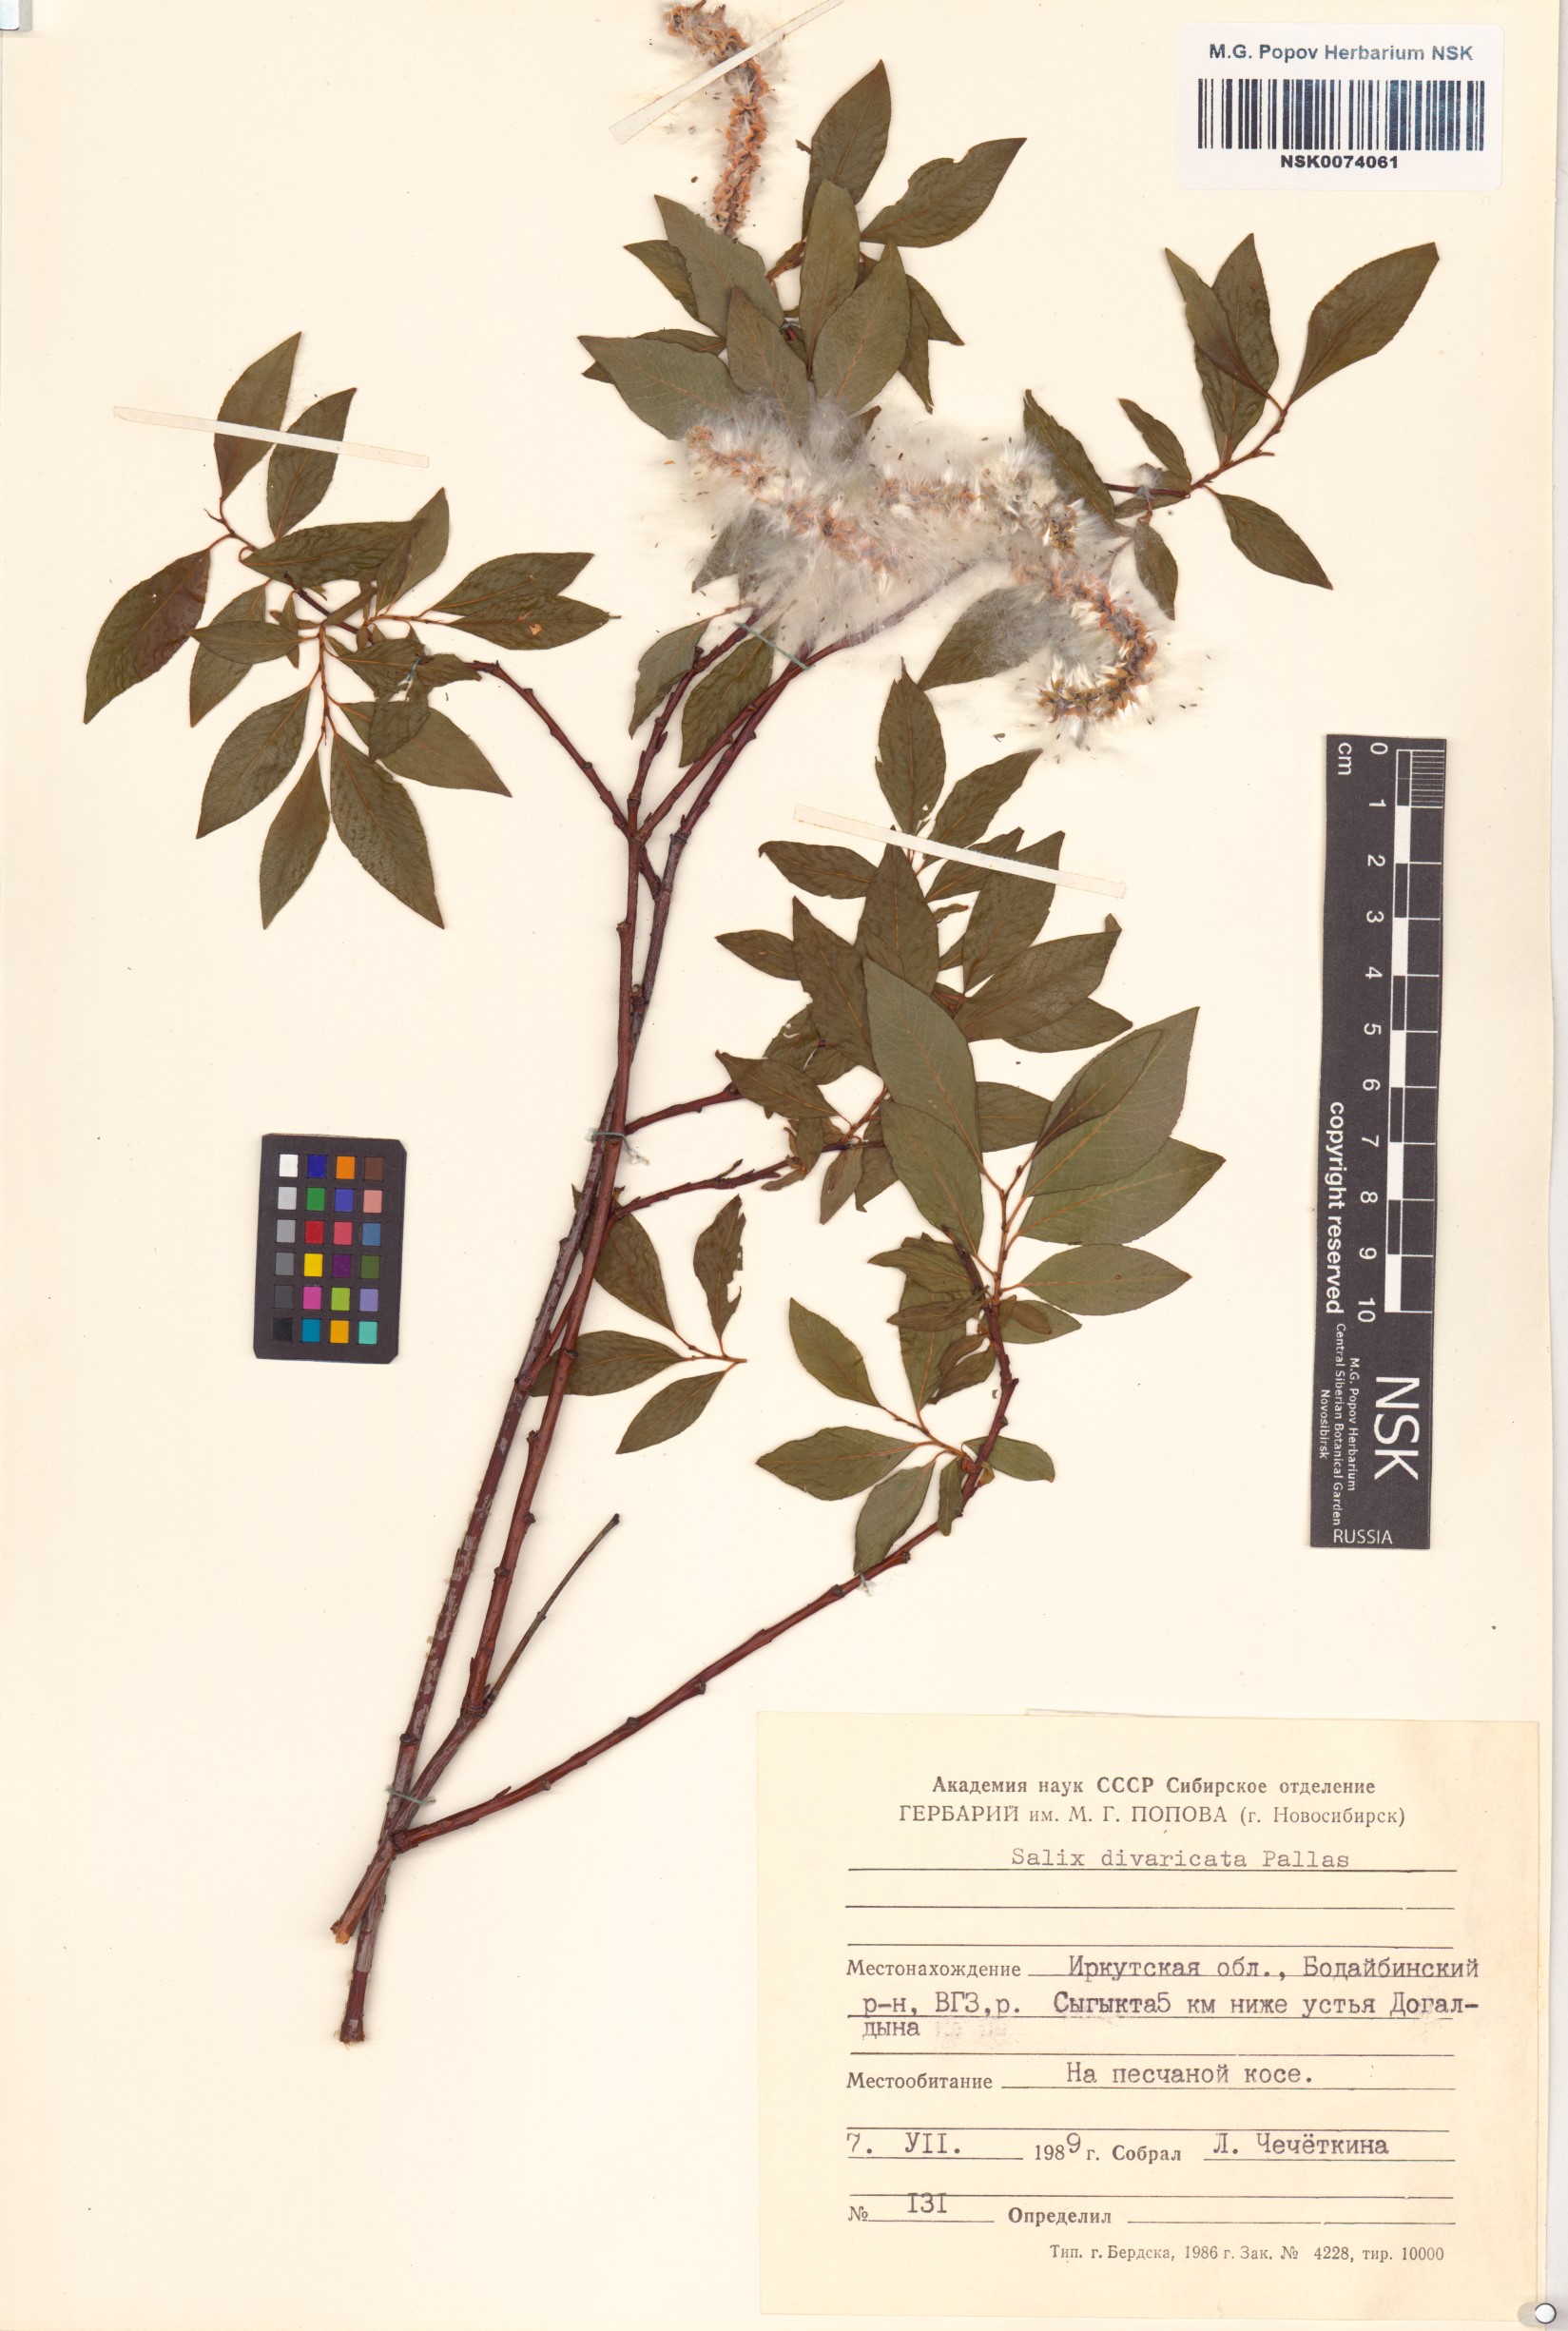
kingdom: Plantae
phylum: Tracheophyta
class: Magnoliopsida
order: Malpighiales
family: Salicaceae
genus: Salix
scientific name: Salix divaricata
